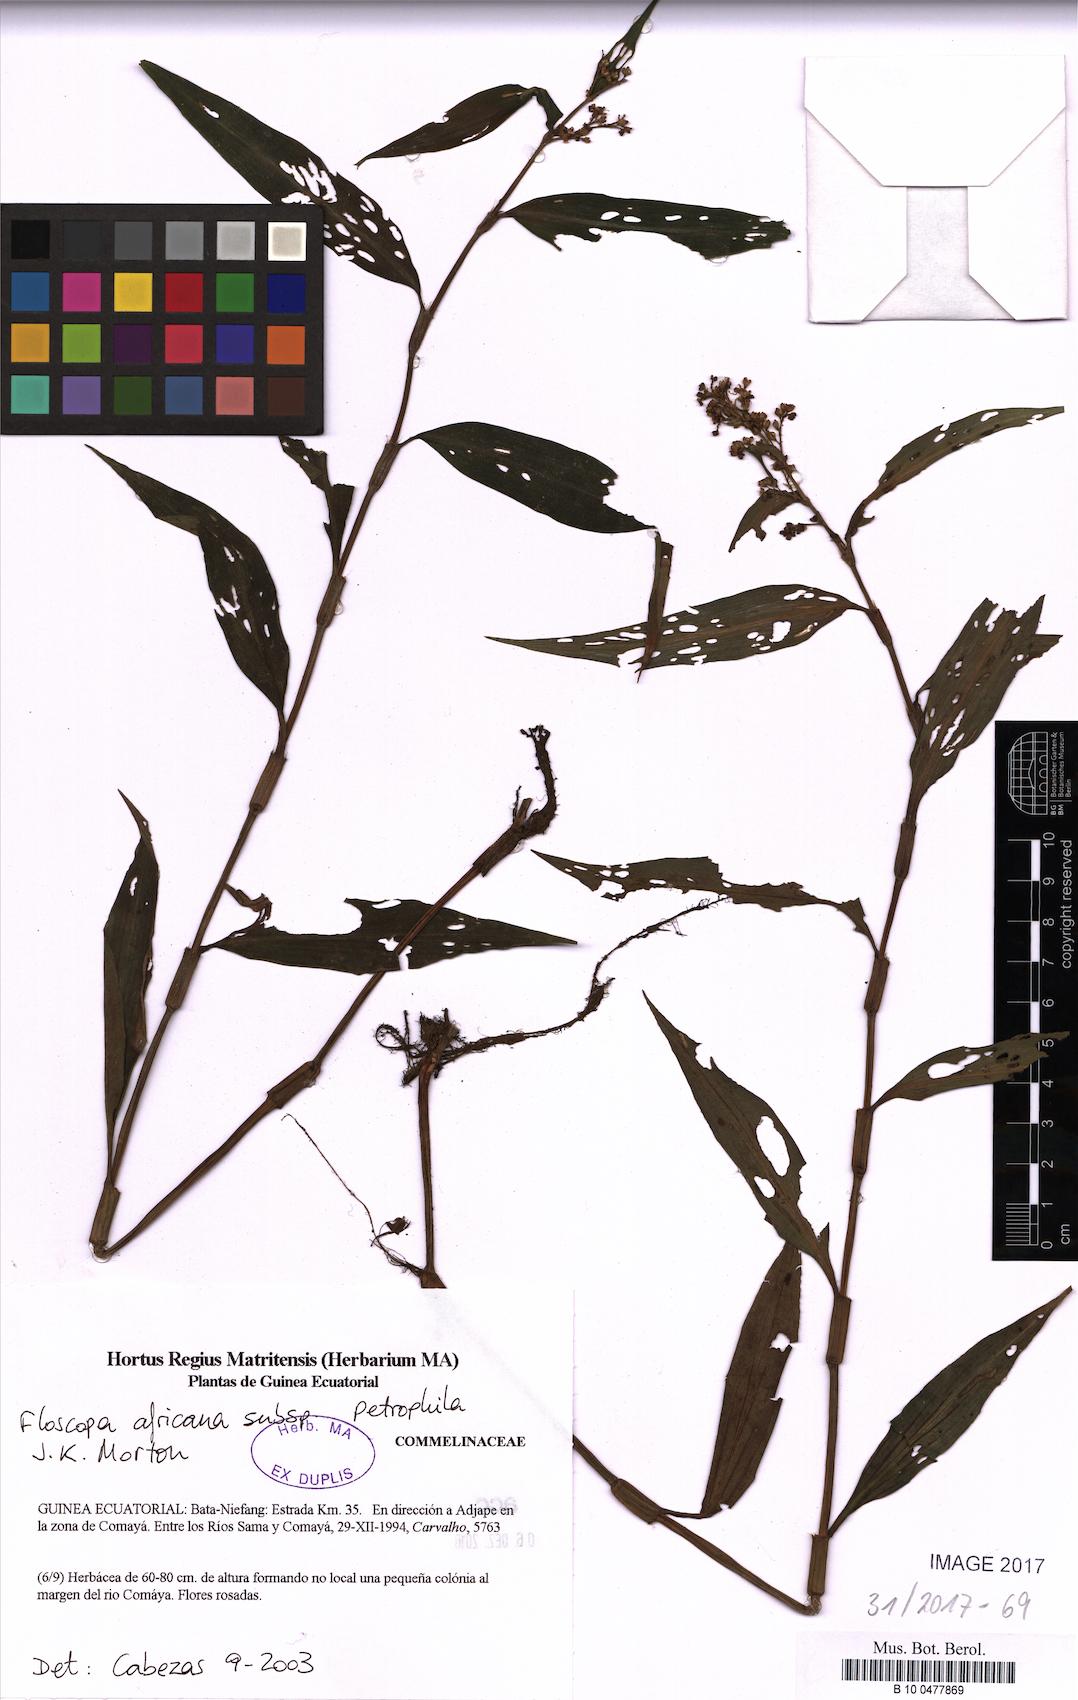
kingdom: Plantae
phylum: Tracheophyta
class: Liliopsida
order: Commelinales
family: Commelinaceae
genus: Floscopa
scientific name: Floscopa africana
